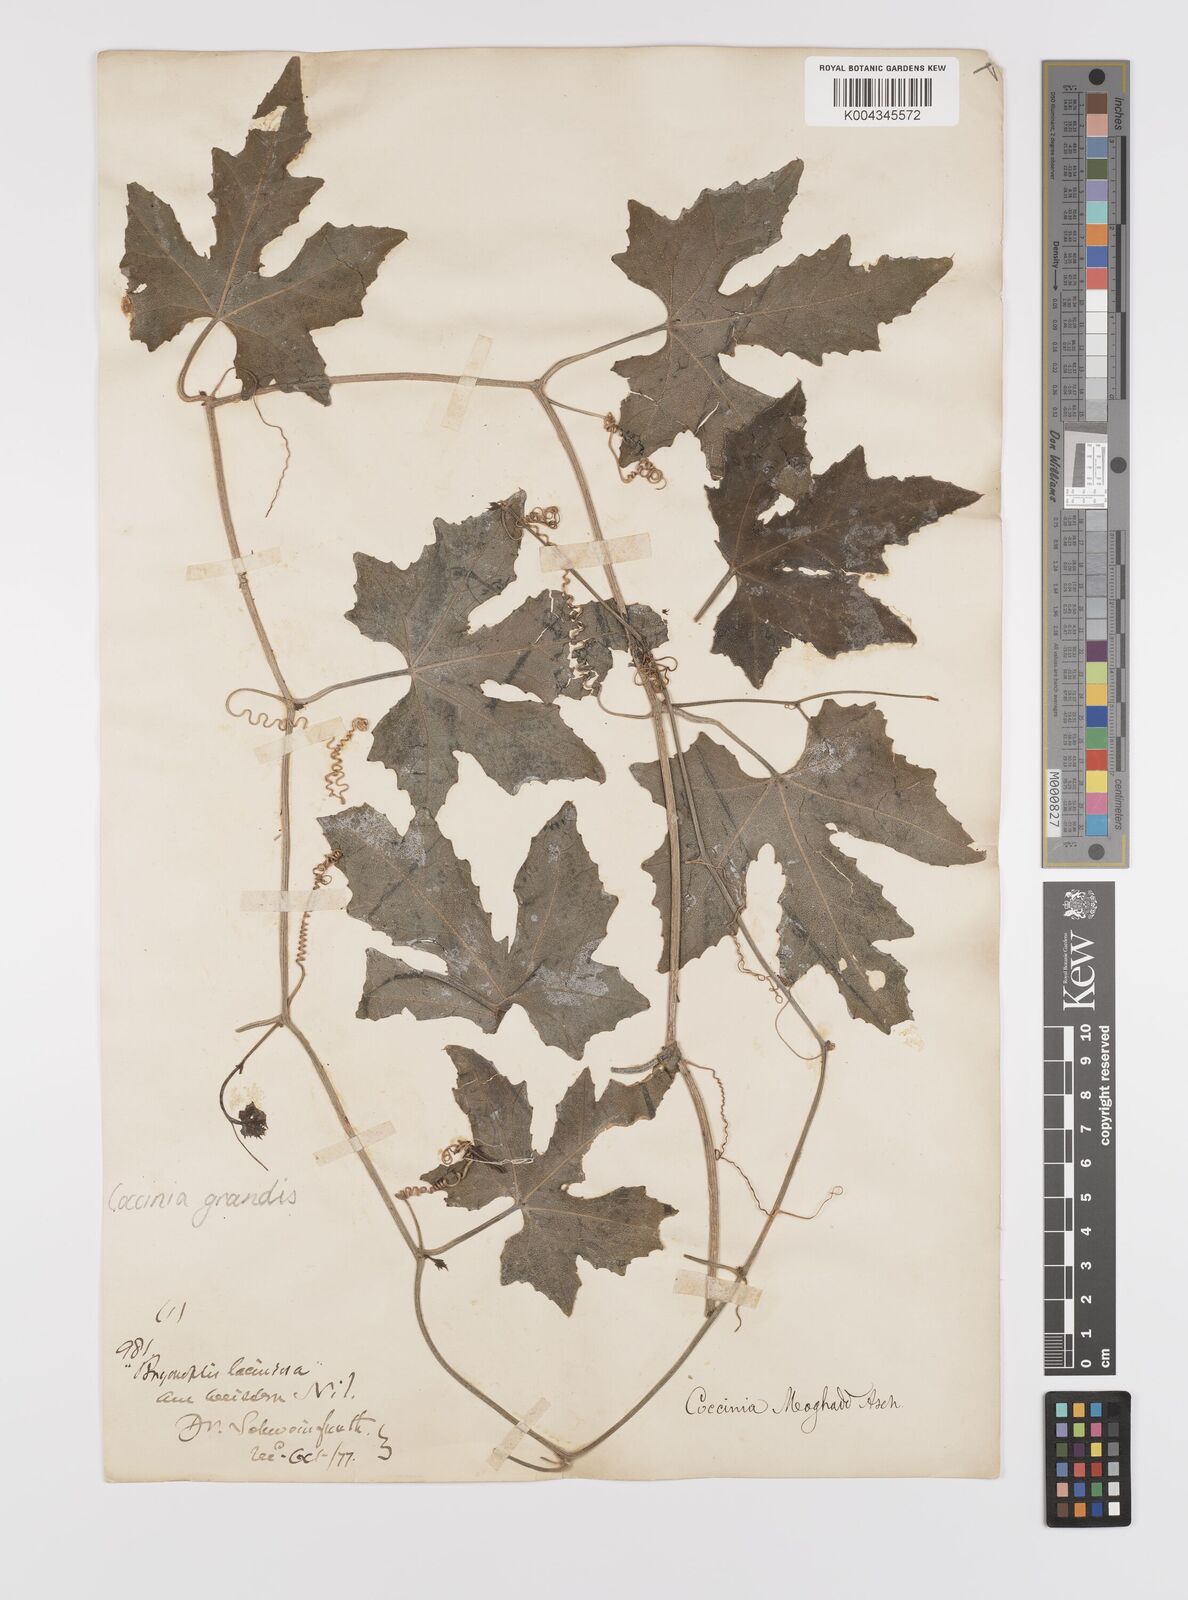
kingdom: Plantae
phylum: Tracheophyta
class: Magnoliopsida
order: Cucurbitales
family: Cucurbitaceae
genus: Coccinia
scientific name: Coccinia grandis
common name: Ivy gourd
